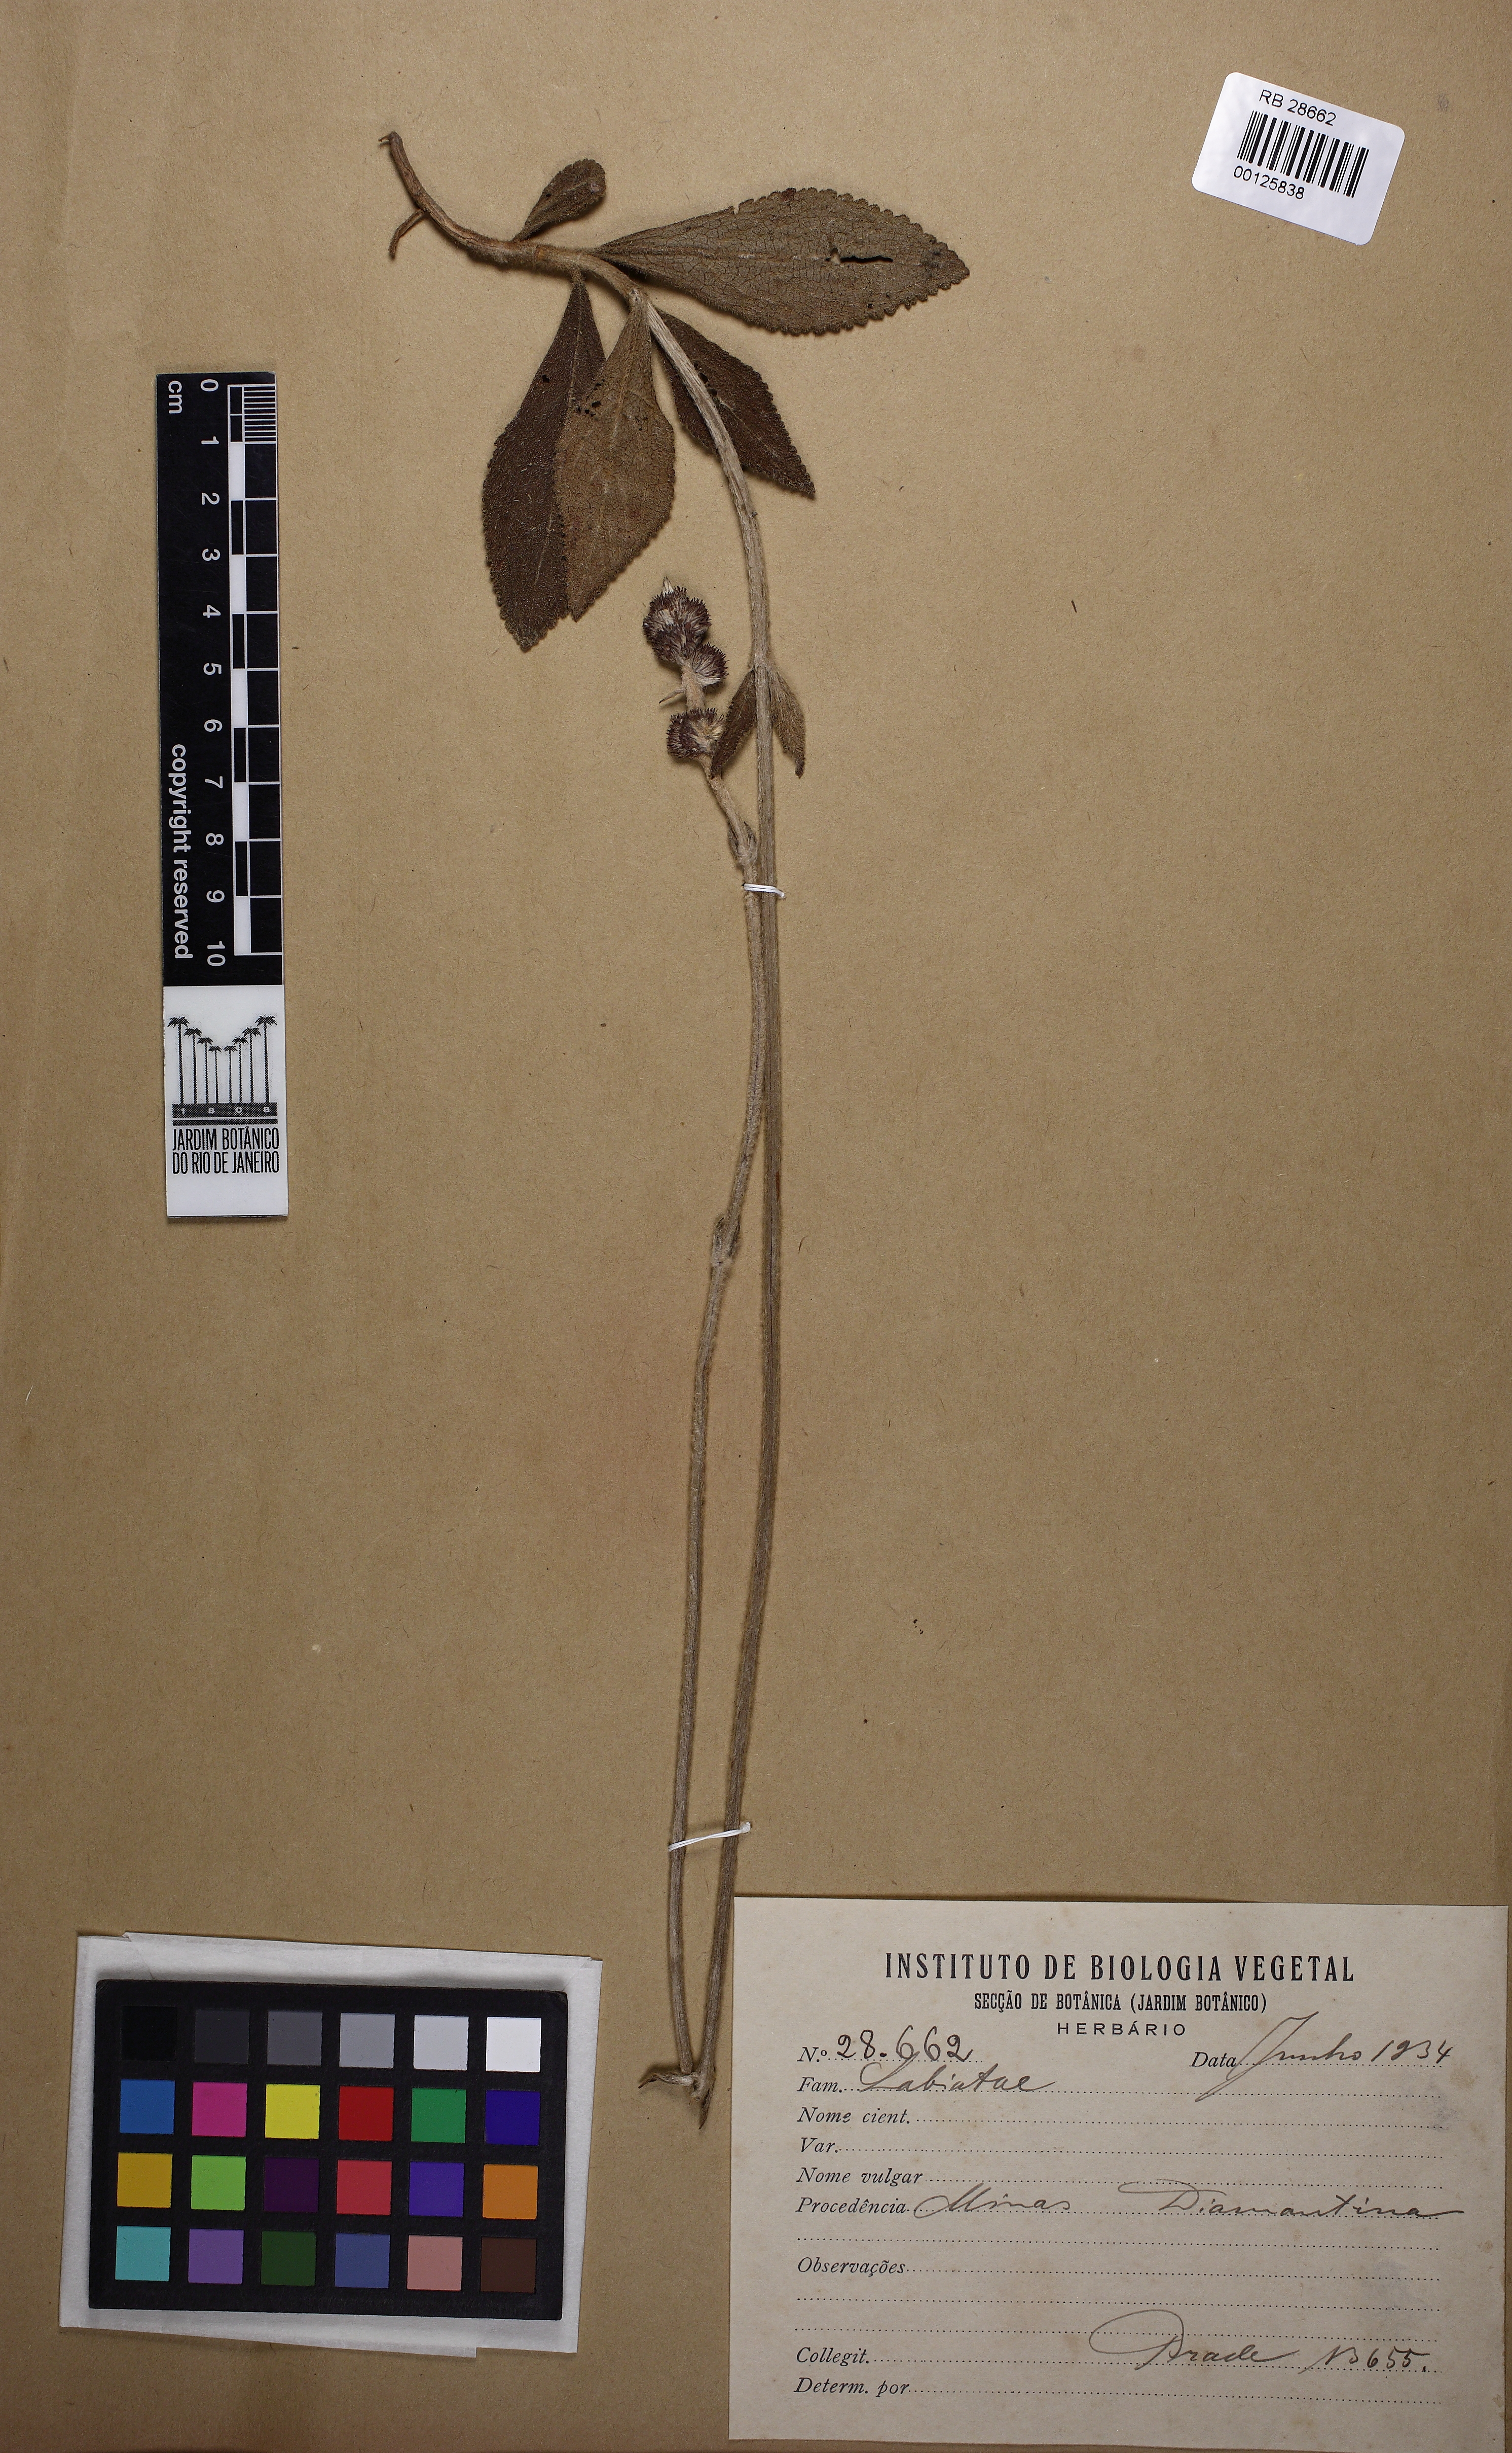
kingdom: Plantae
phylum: Tracheophyta
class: Magnoliopsida
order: Lamiales
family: Lamiaceae
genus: Hyptis
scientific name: Hyptis nudicaulis
